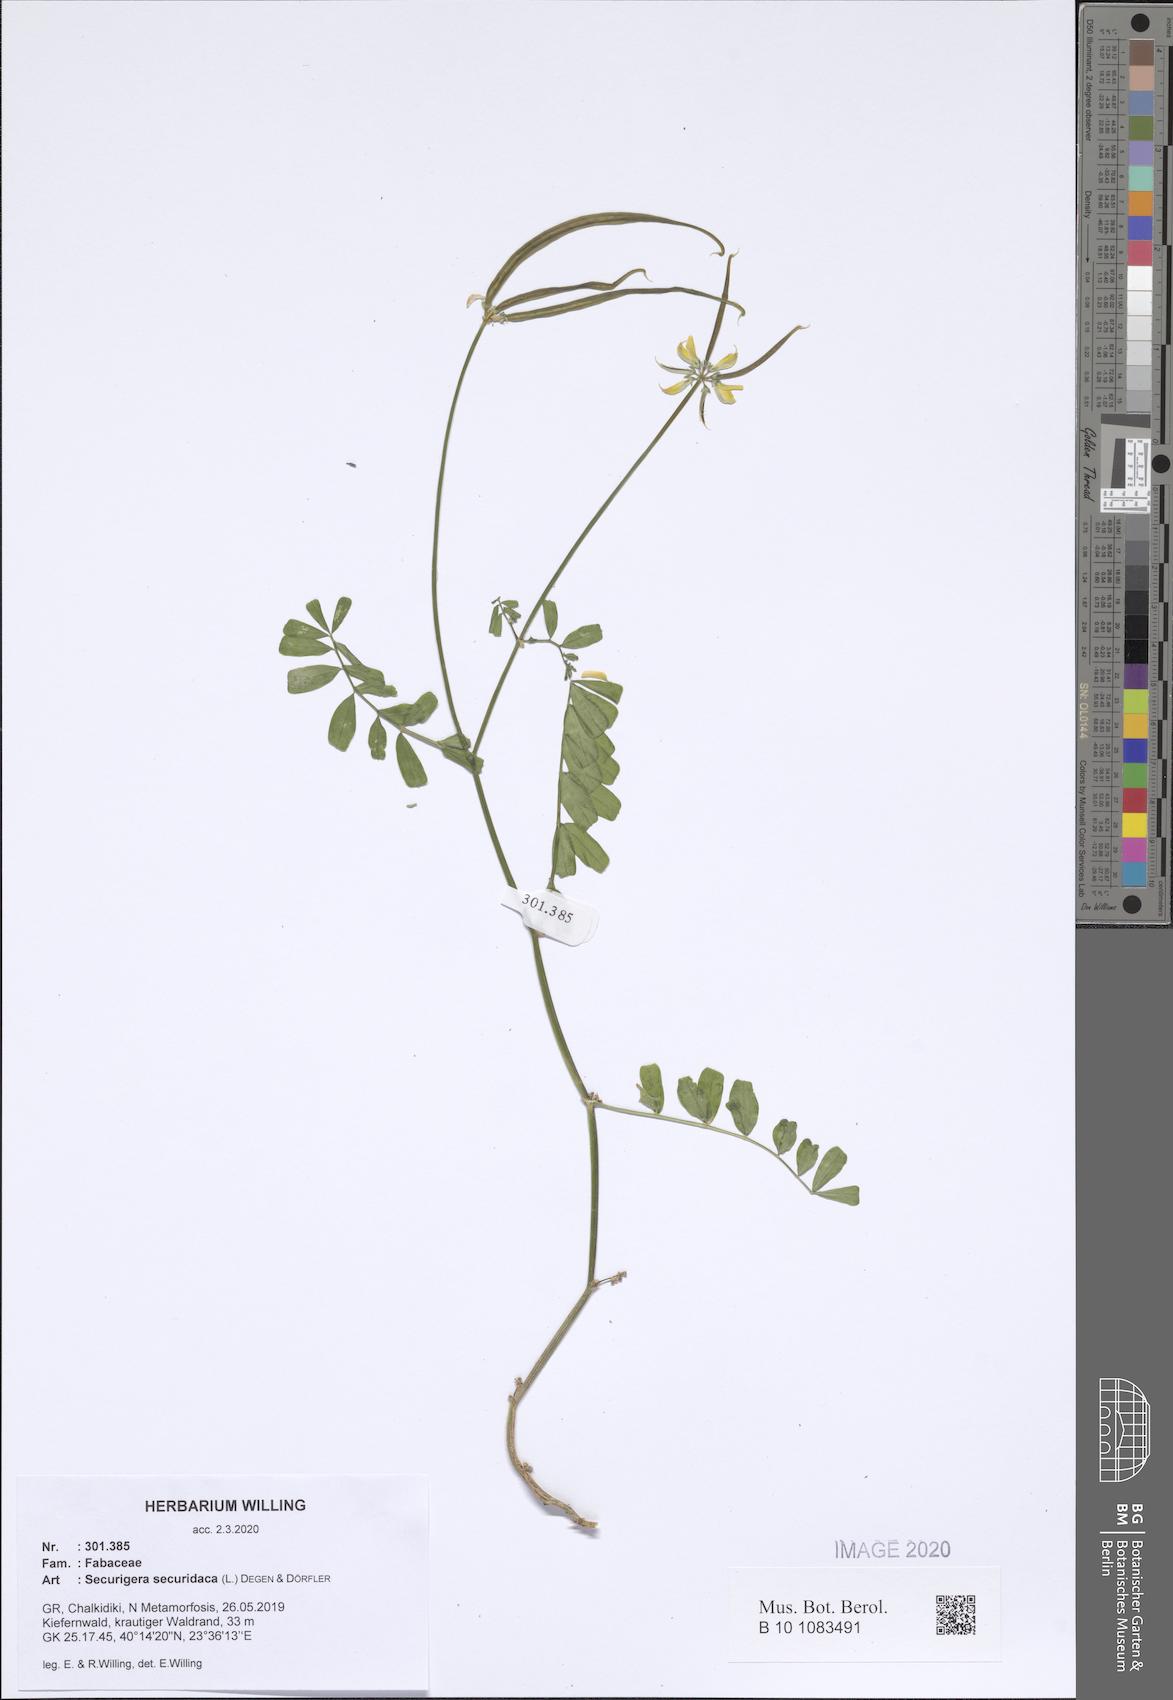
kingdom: Plantae
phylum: Tracheophyta
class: Magnoliopsida
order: Fabales
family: Fabaceae
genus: Coronilla
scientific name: Coronilla securidaca
